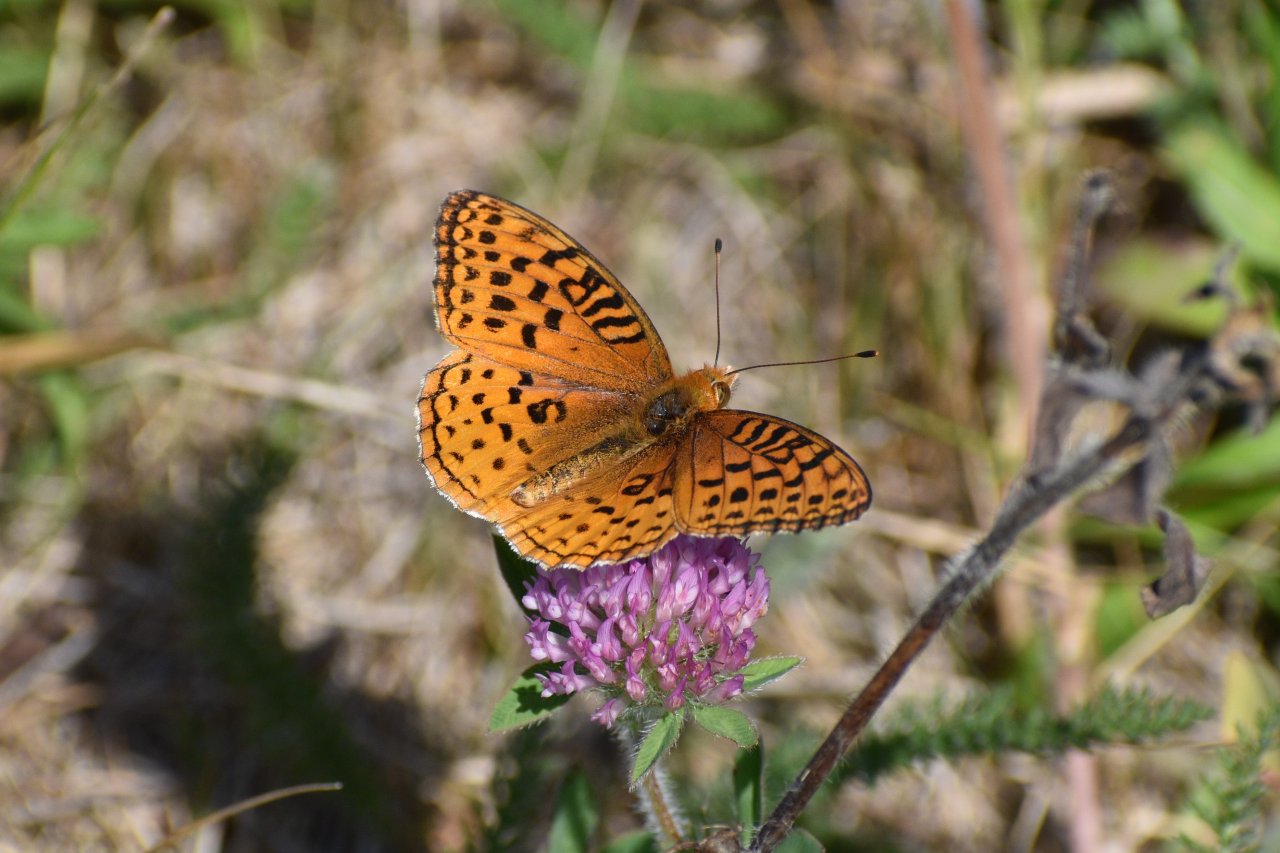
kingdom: Animalia
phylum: Arthropoda
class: Insecta
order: Lepidoptera
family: Nymphalidae
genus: Speyeria
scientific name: Speyeria aphrodite
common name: Aphrodite Fritillary
